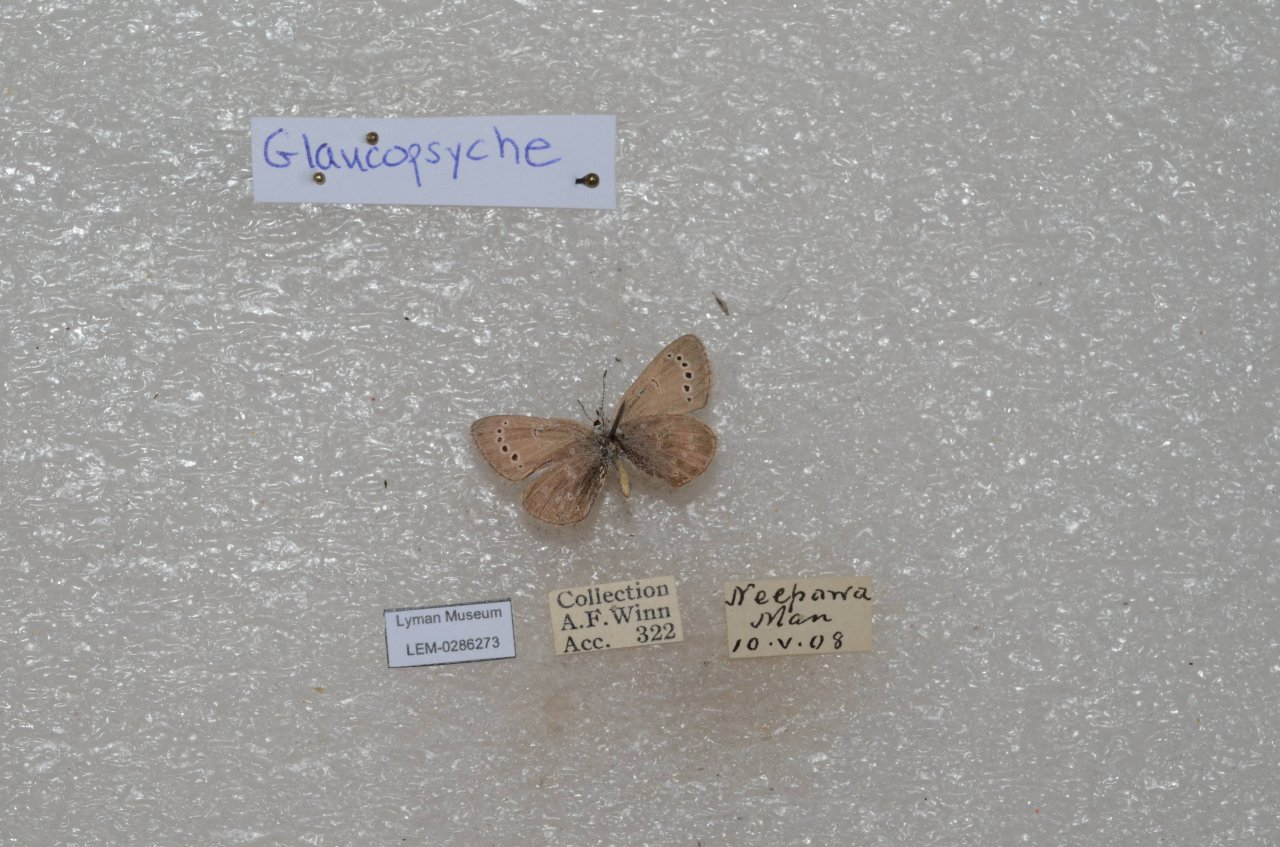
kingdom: Animalia
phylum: Arthropoda
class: Insecta
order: Lepidoptera
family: Lycaenidae
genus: Glaucopsyche
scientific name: Glaucopsyche lygdamus
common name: Silvery Blue
